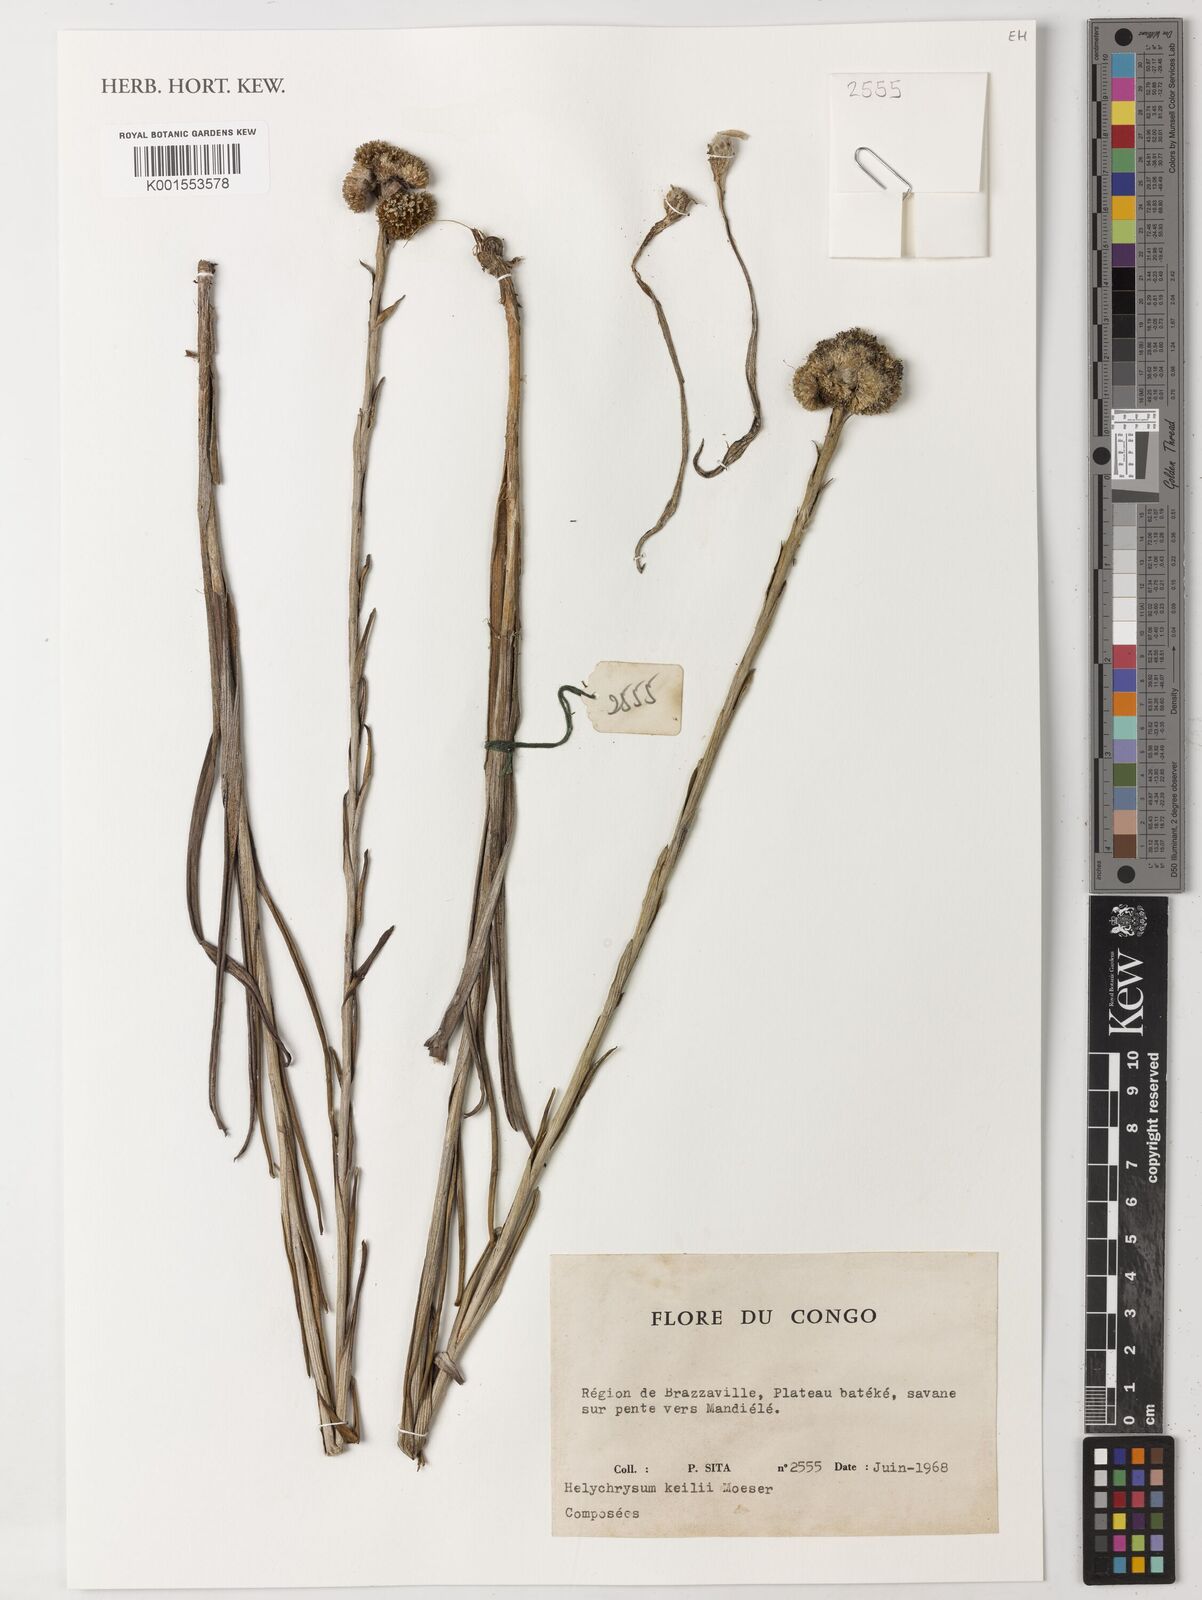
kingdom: Plantae
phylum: Tracheophyta
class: Magnoliopsida
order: Asterales
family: Asteraceae
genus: Helichrysum
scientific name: Helichrysum keilii
